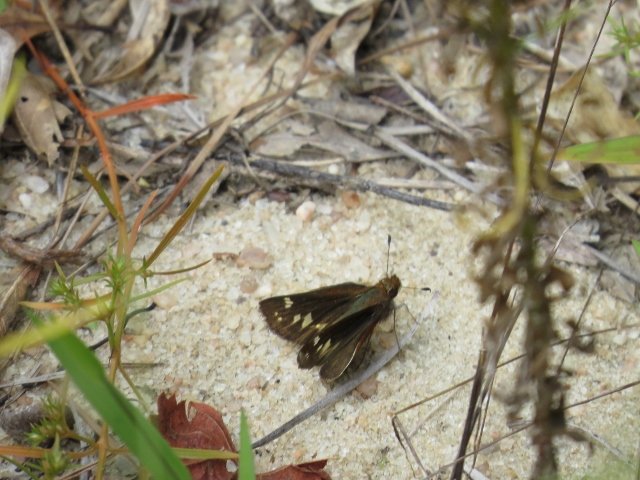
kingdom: Animalia
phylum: Arthropoda
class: Insecta
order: Lepidoptera
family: Hesperiidae
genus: Lon
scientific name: Lon zabulon
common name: Zabulon Skipper
